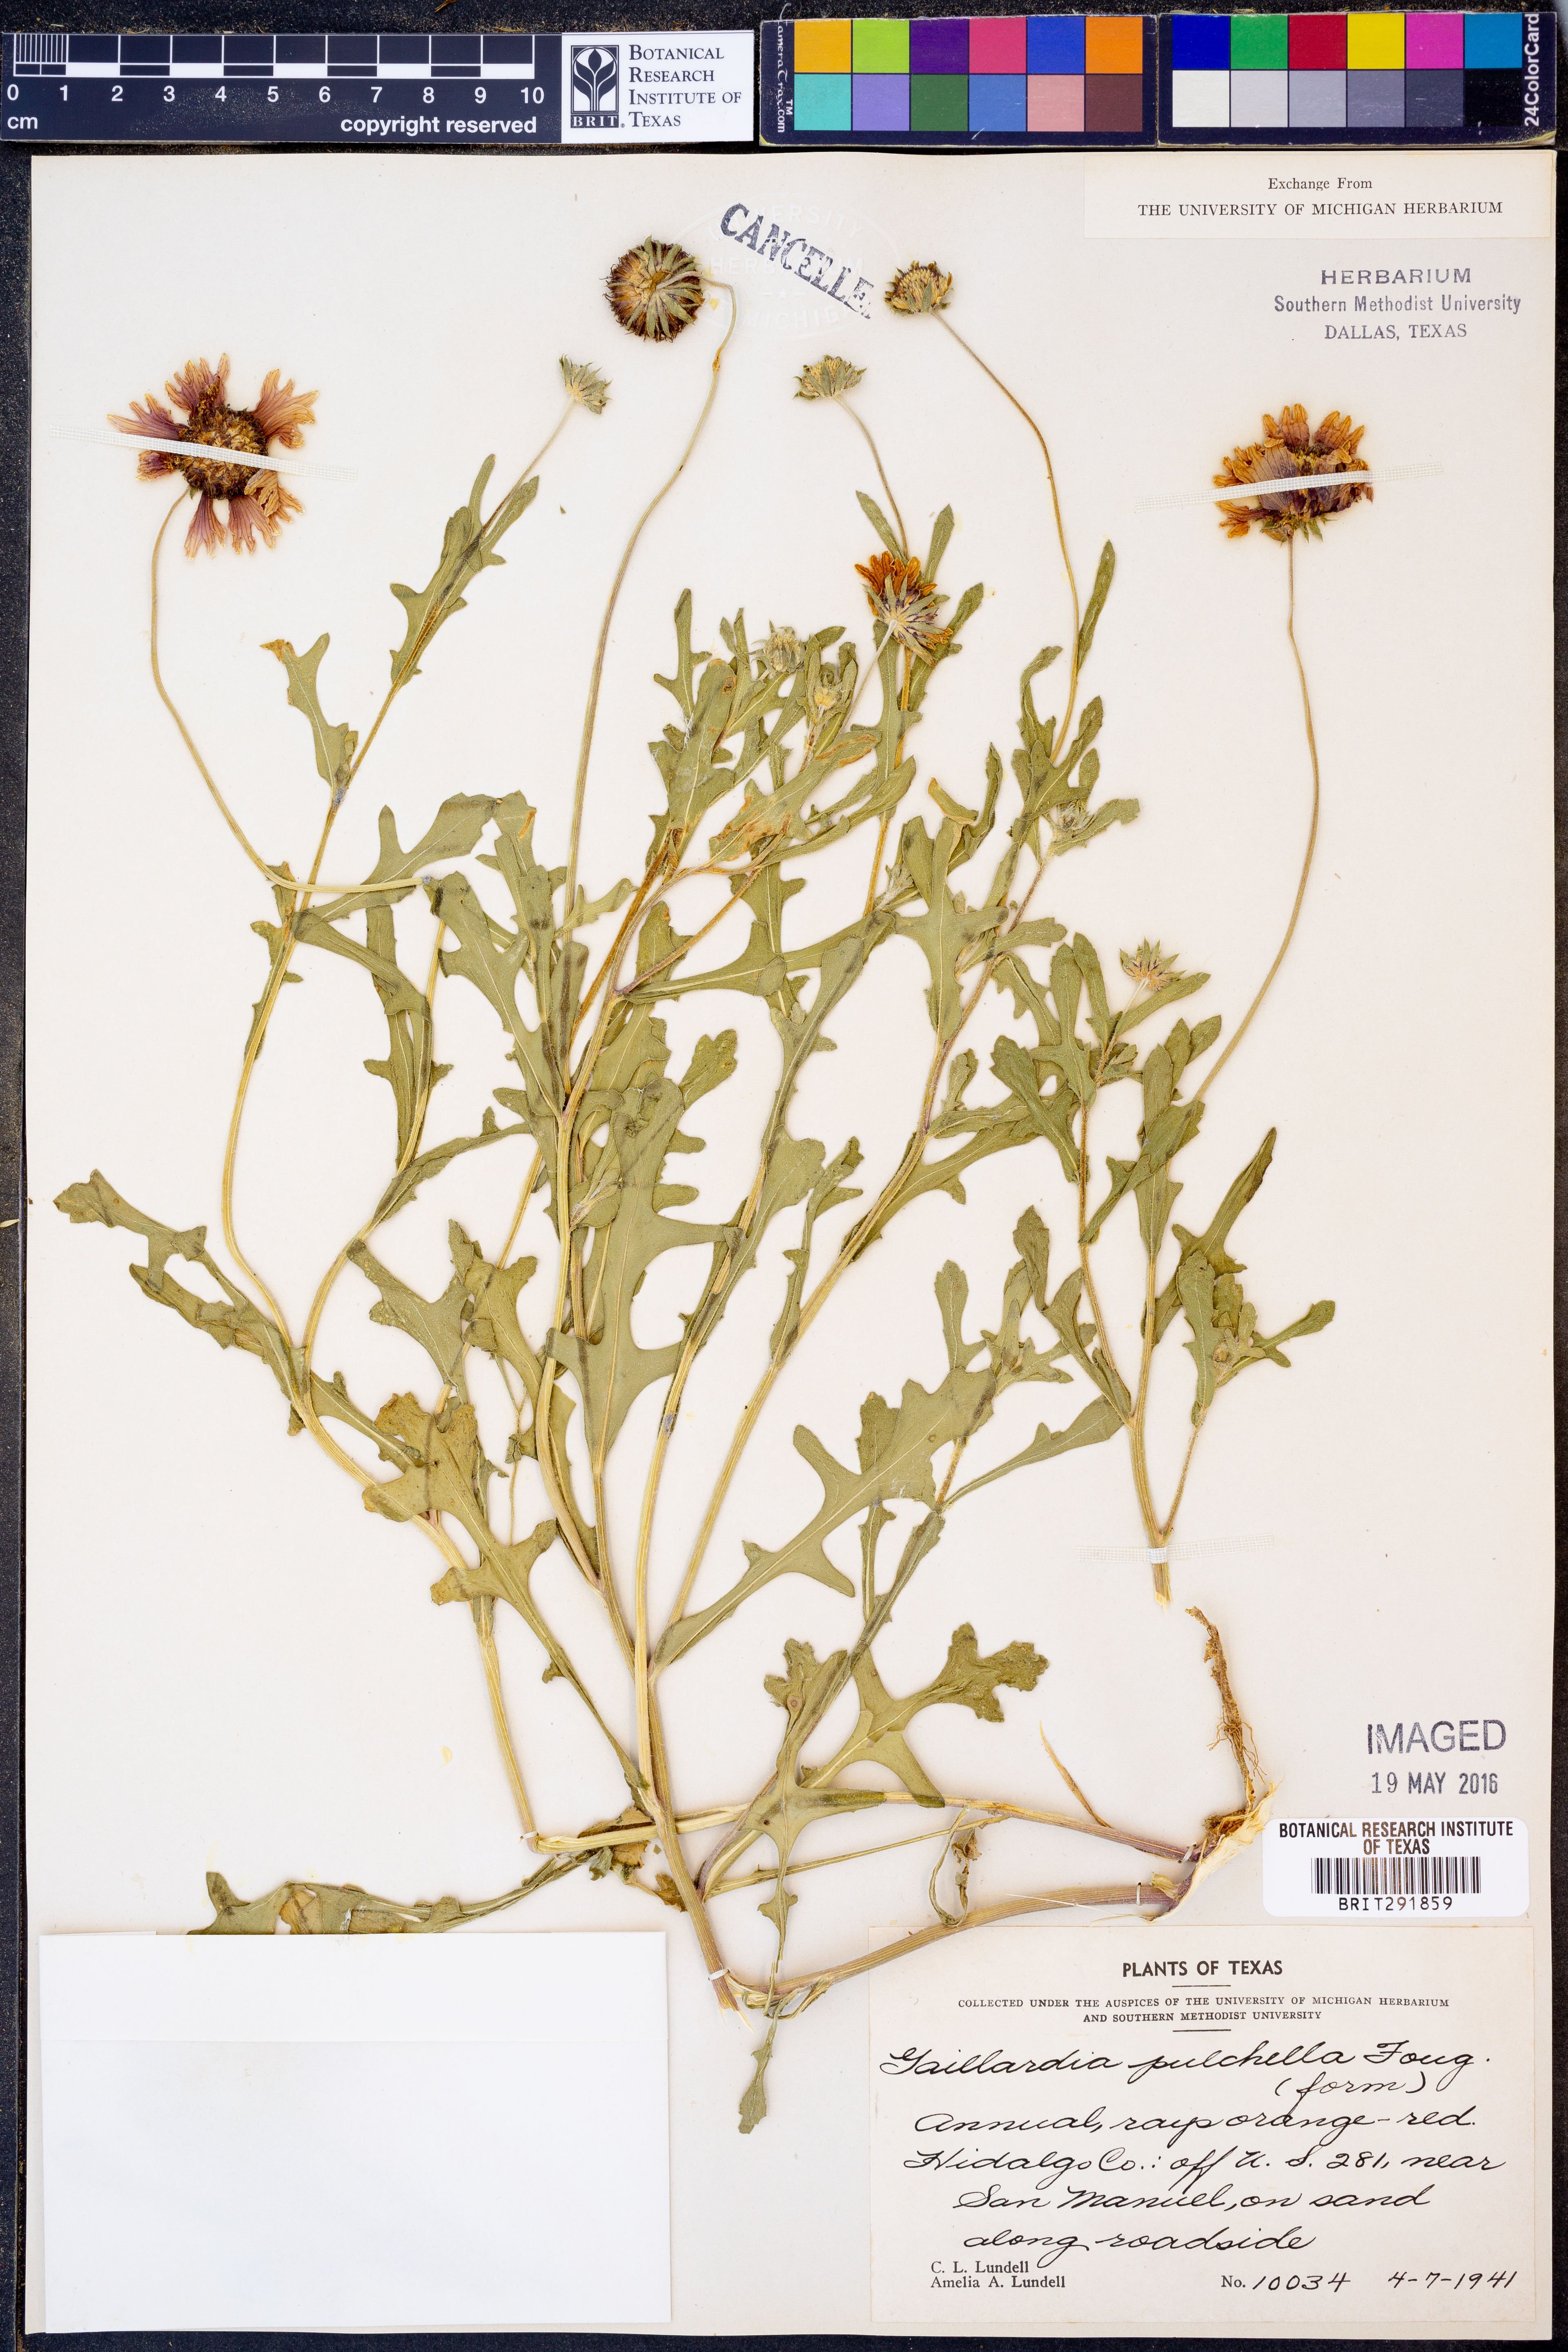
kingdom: Plantae
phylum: Tracheophyta
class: Magnoliopsida
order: Asterales
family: Asteraceae
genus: Gaillardia
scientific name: Gaillardia pulchella
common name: Firewheel
